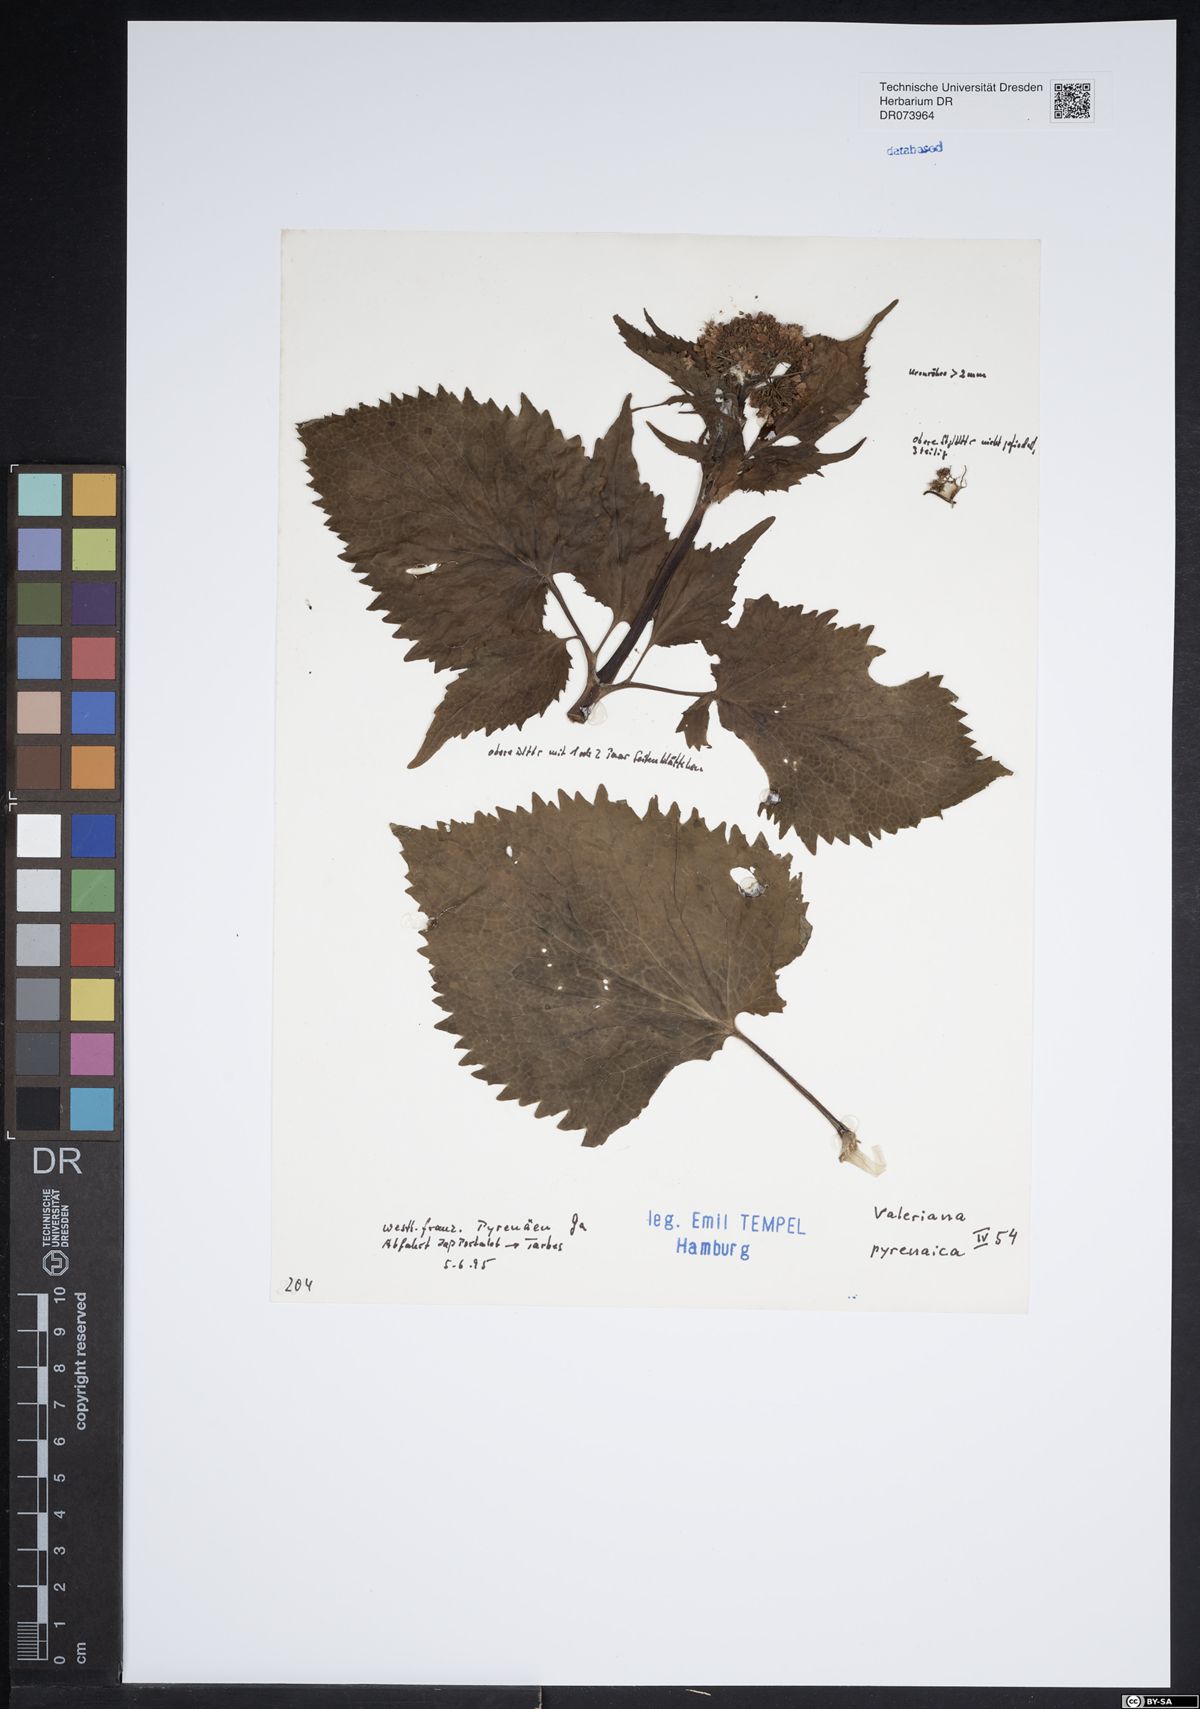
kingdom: Plantae
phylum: Tracheophyta
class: Magnoliopsida
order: Dipsacales
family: Caprifoliaceae
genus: Valeriana
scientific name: Valeriana pyrenaica
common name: Pyrenean valerian
